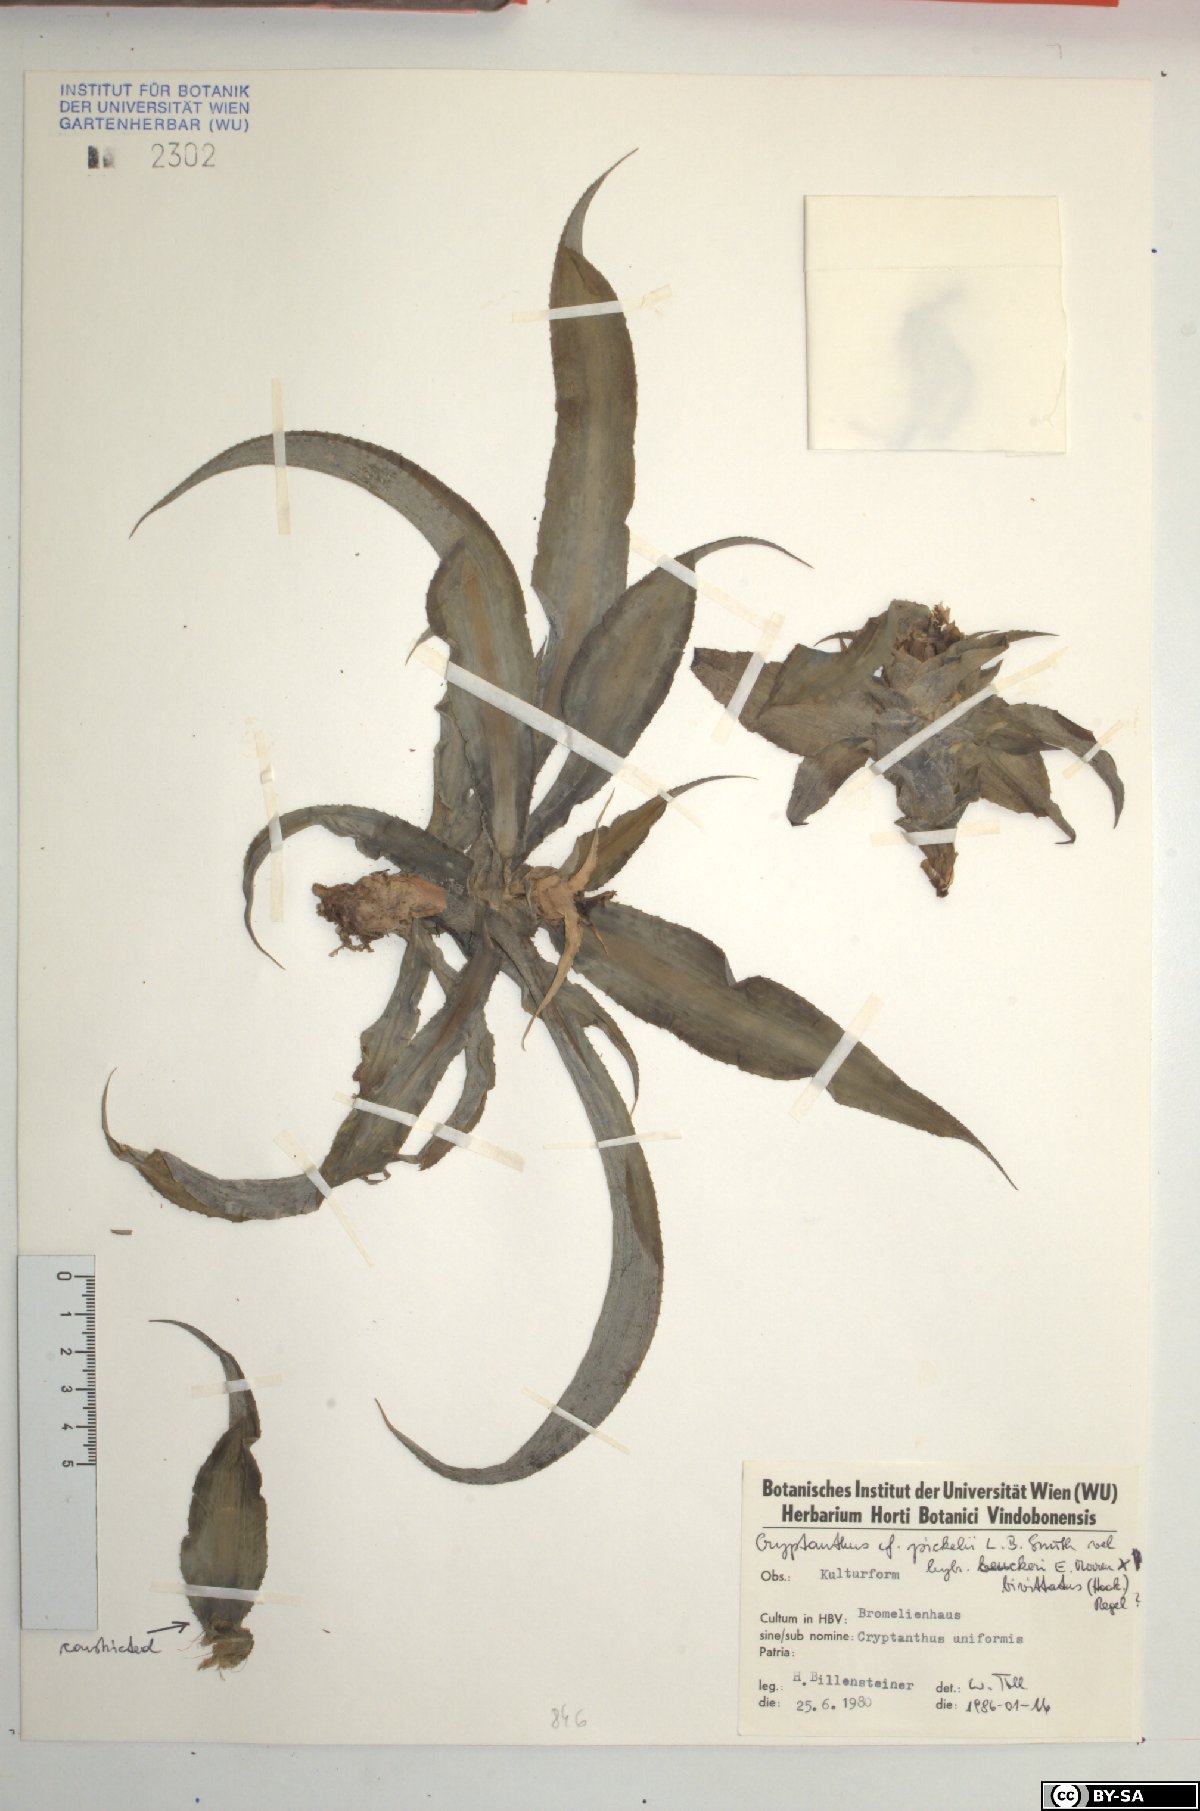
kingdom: Plantae
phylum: Tracheophyta
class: Liliopsida
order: Poales
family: Bromeliaceae
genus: Cryptanthus
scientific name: Cryptanthus pickelii
